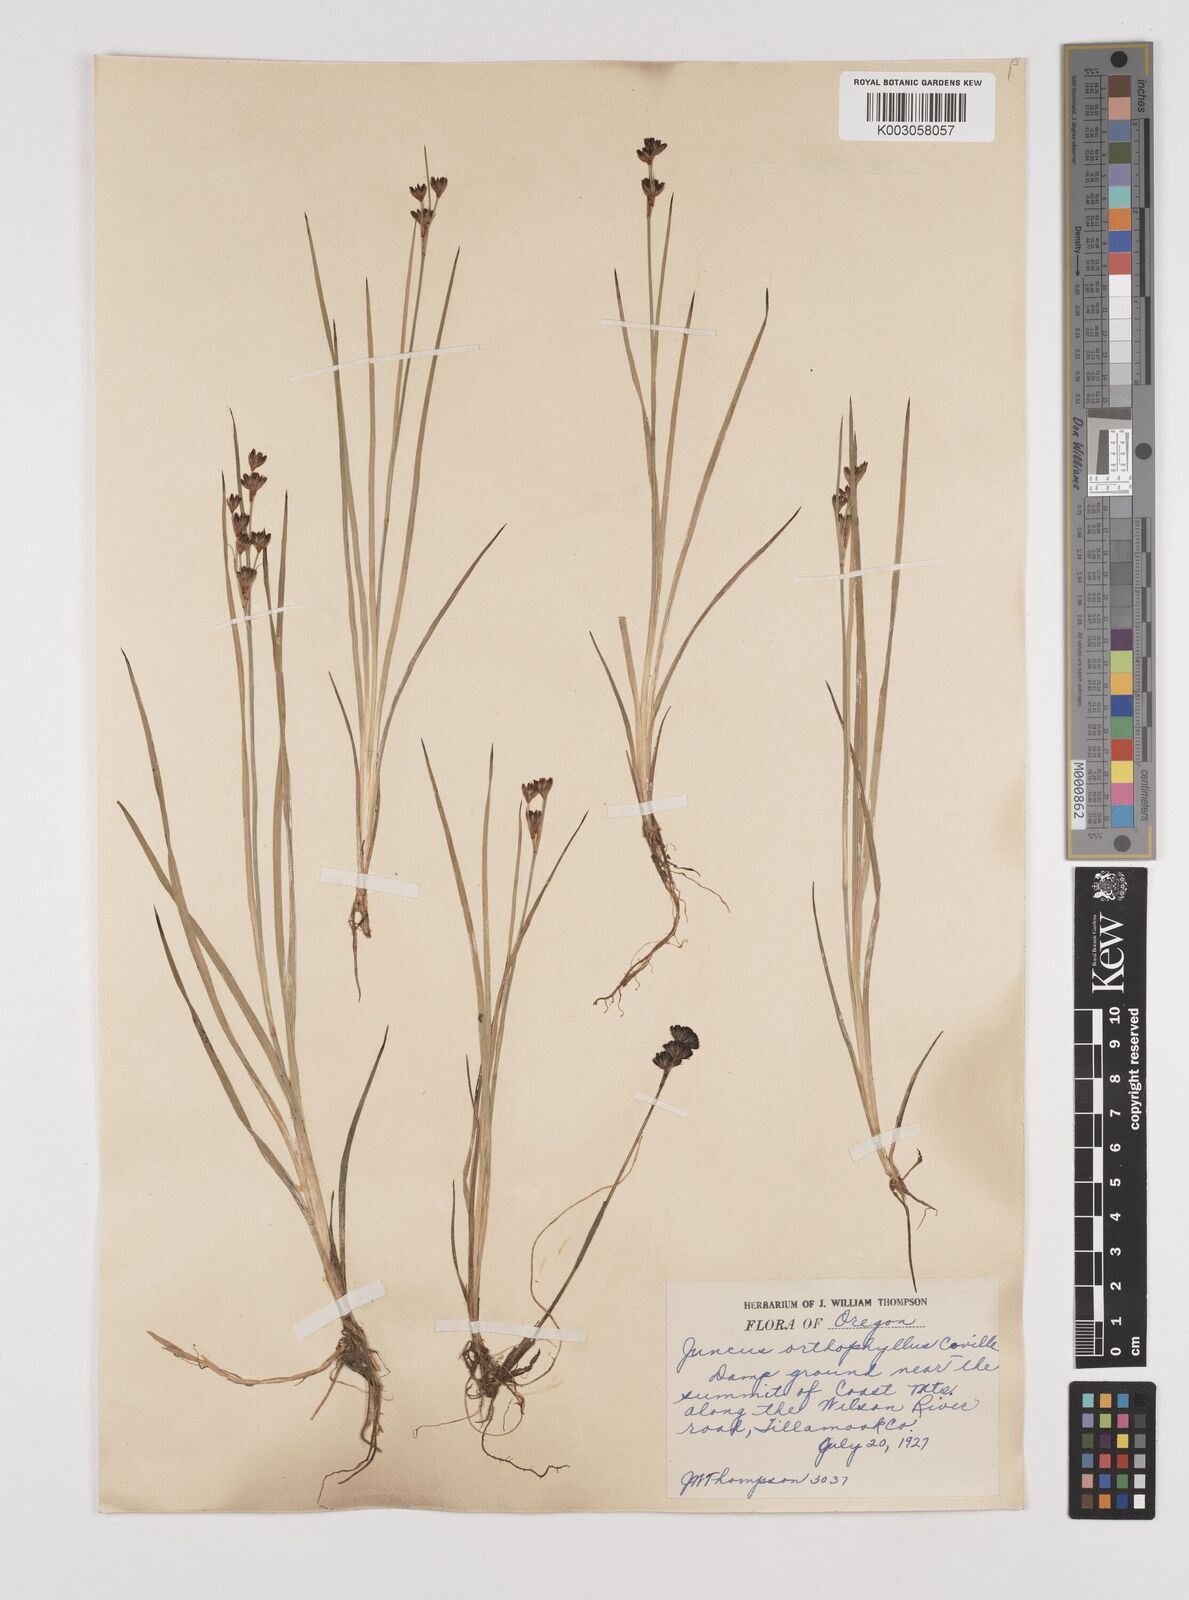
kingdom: Plantae
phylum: Tracheophyta
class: Liliopsida
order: Poales
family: Juncaceae
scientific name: Juncaceae
